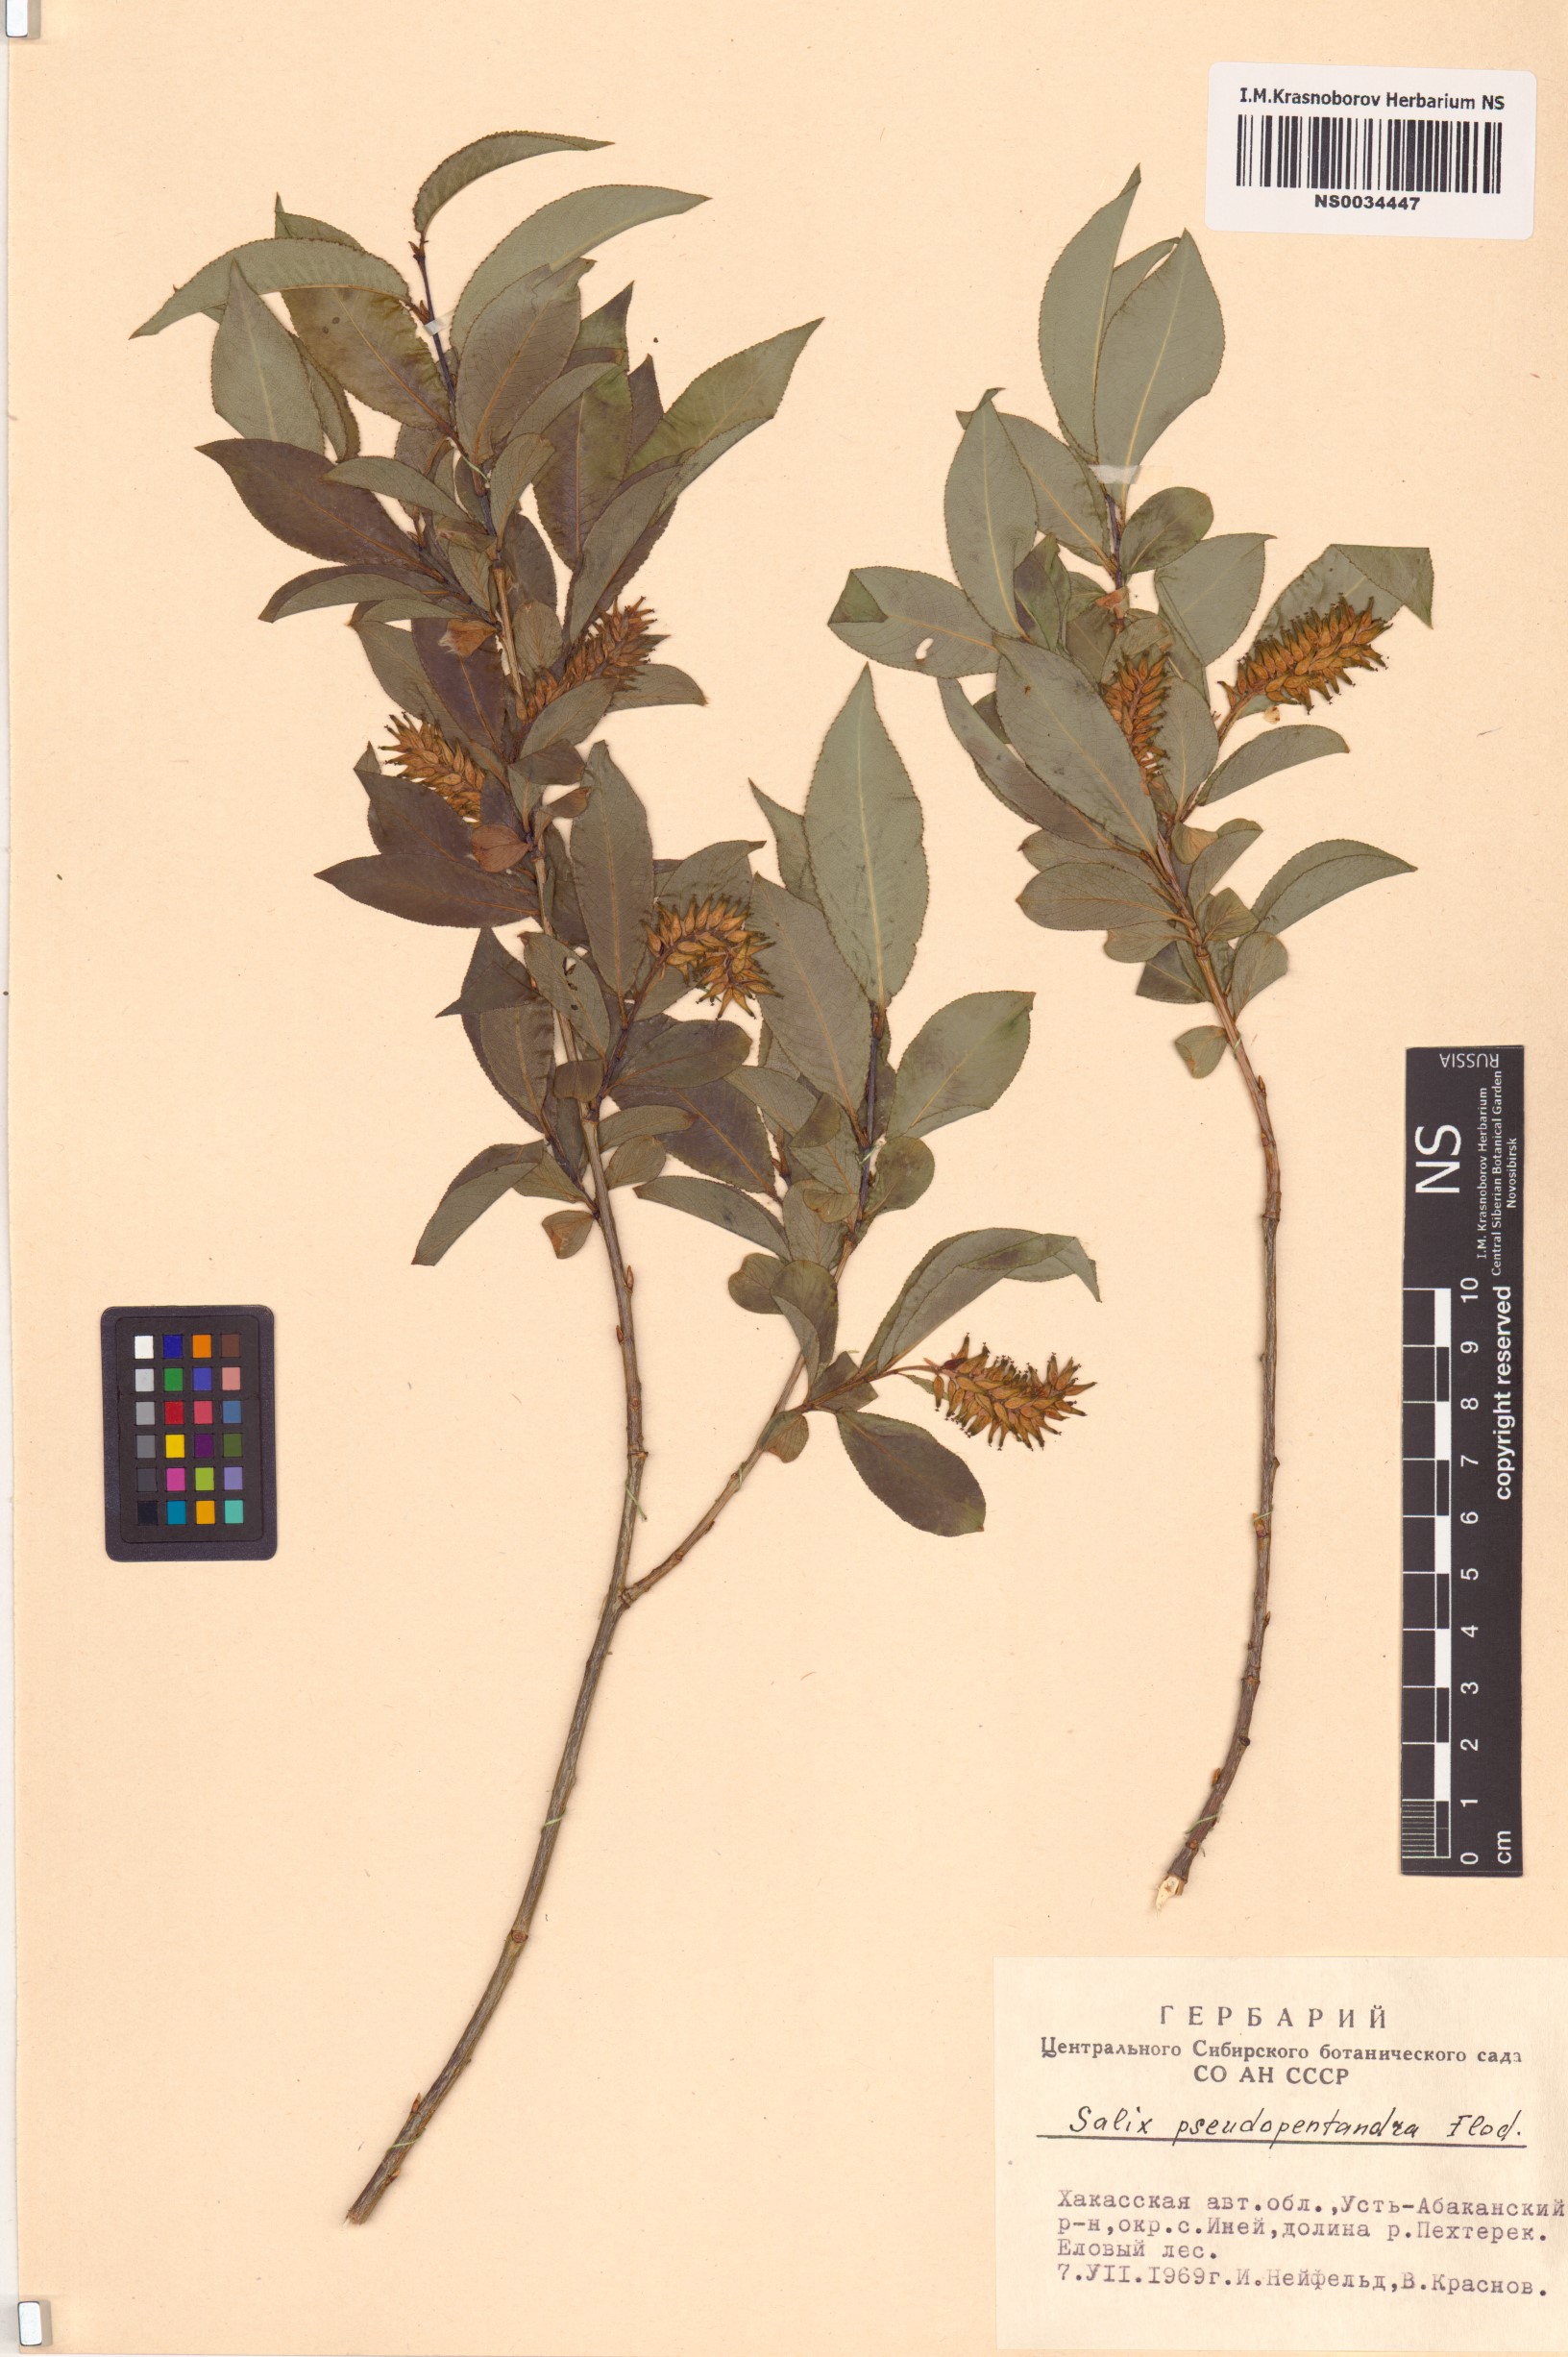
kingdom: Plantae
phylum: Tracheophyta
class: Magnoliopsida
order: Malpighiales
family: Salicaceae
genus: Salix
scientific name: Salix pseudopentandra
